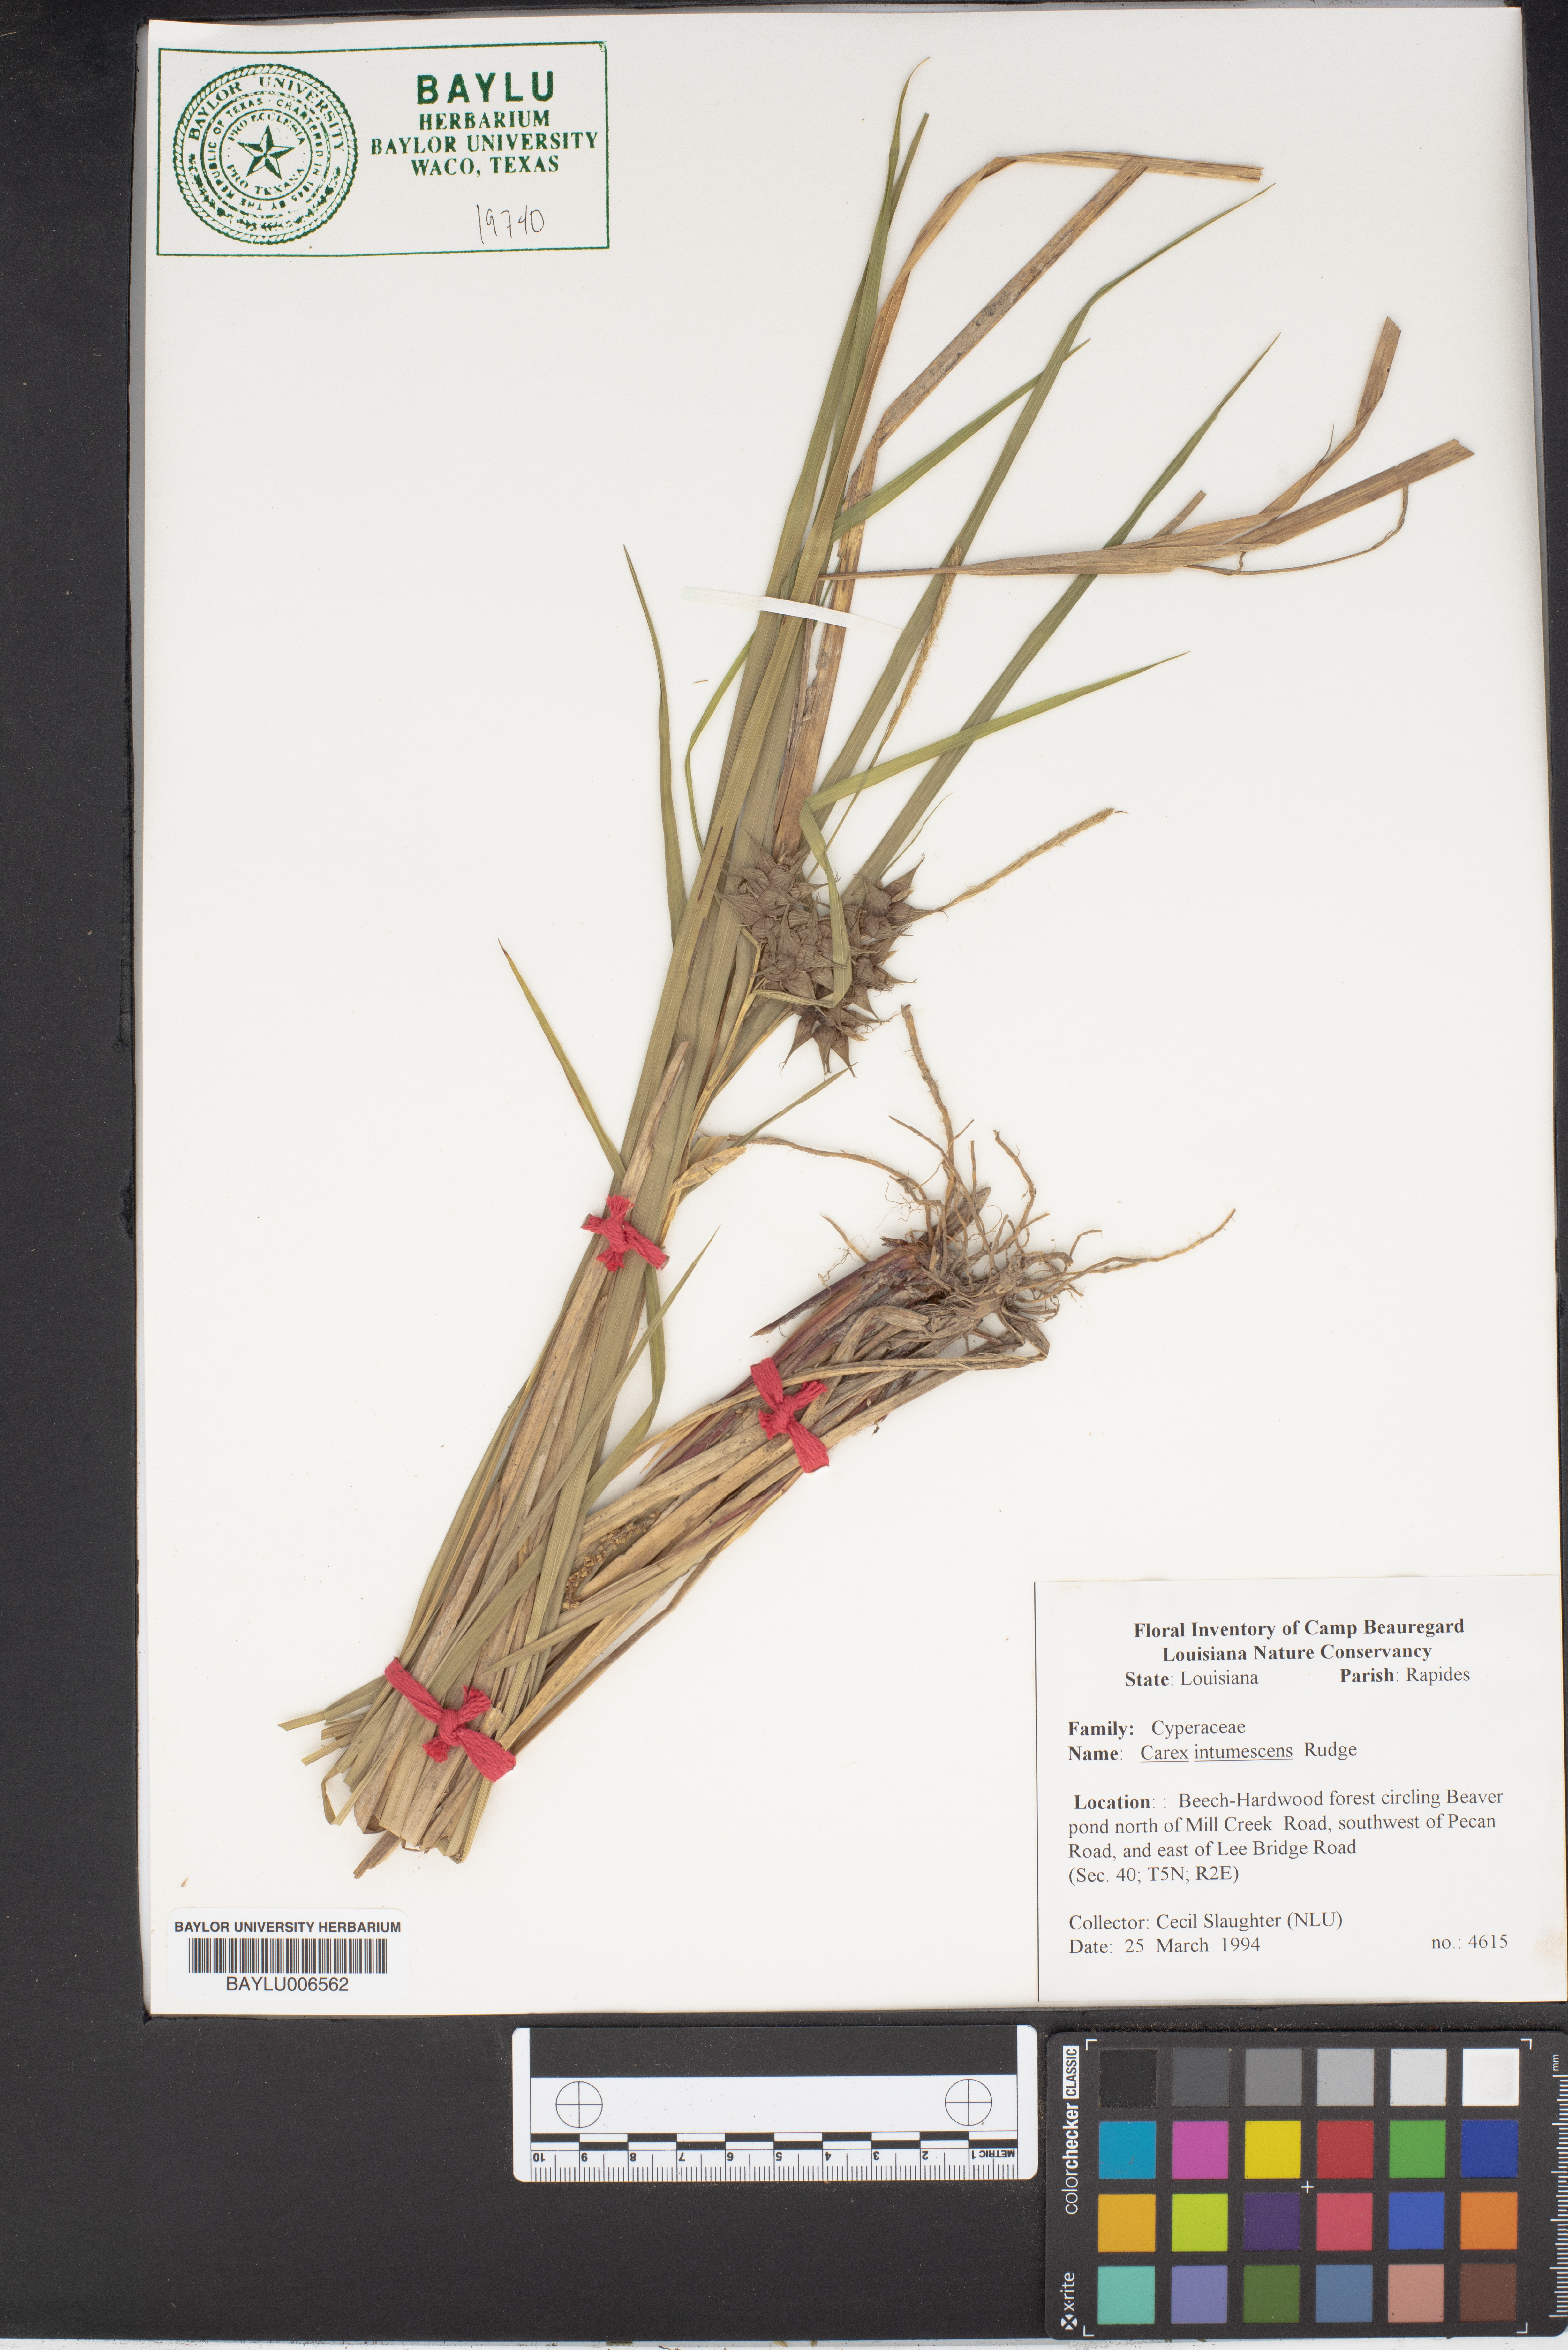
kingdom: Plantae
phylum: Tracheophyta
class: Liliopsida
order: Poales
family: Cyperaceae
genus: Carex
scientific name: Carex intumescens
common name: Greater bladder sedge
